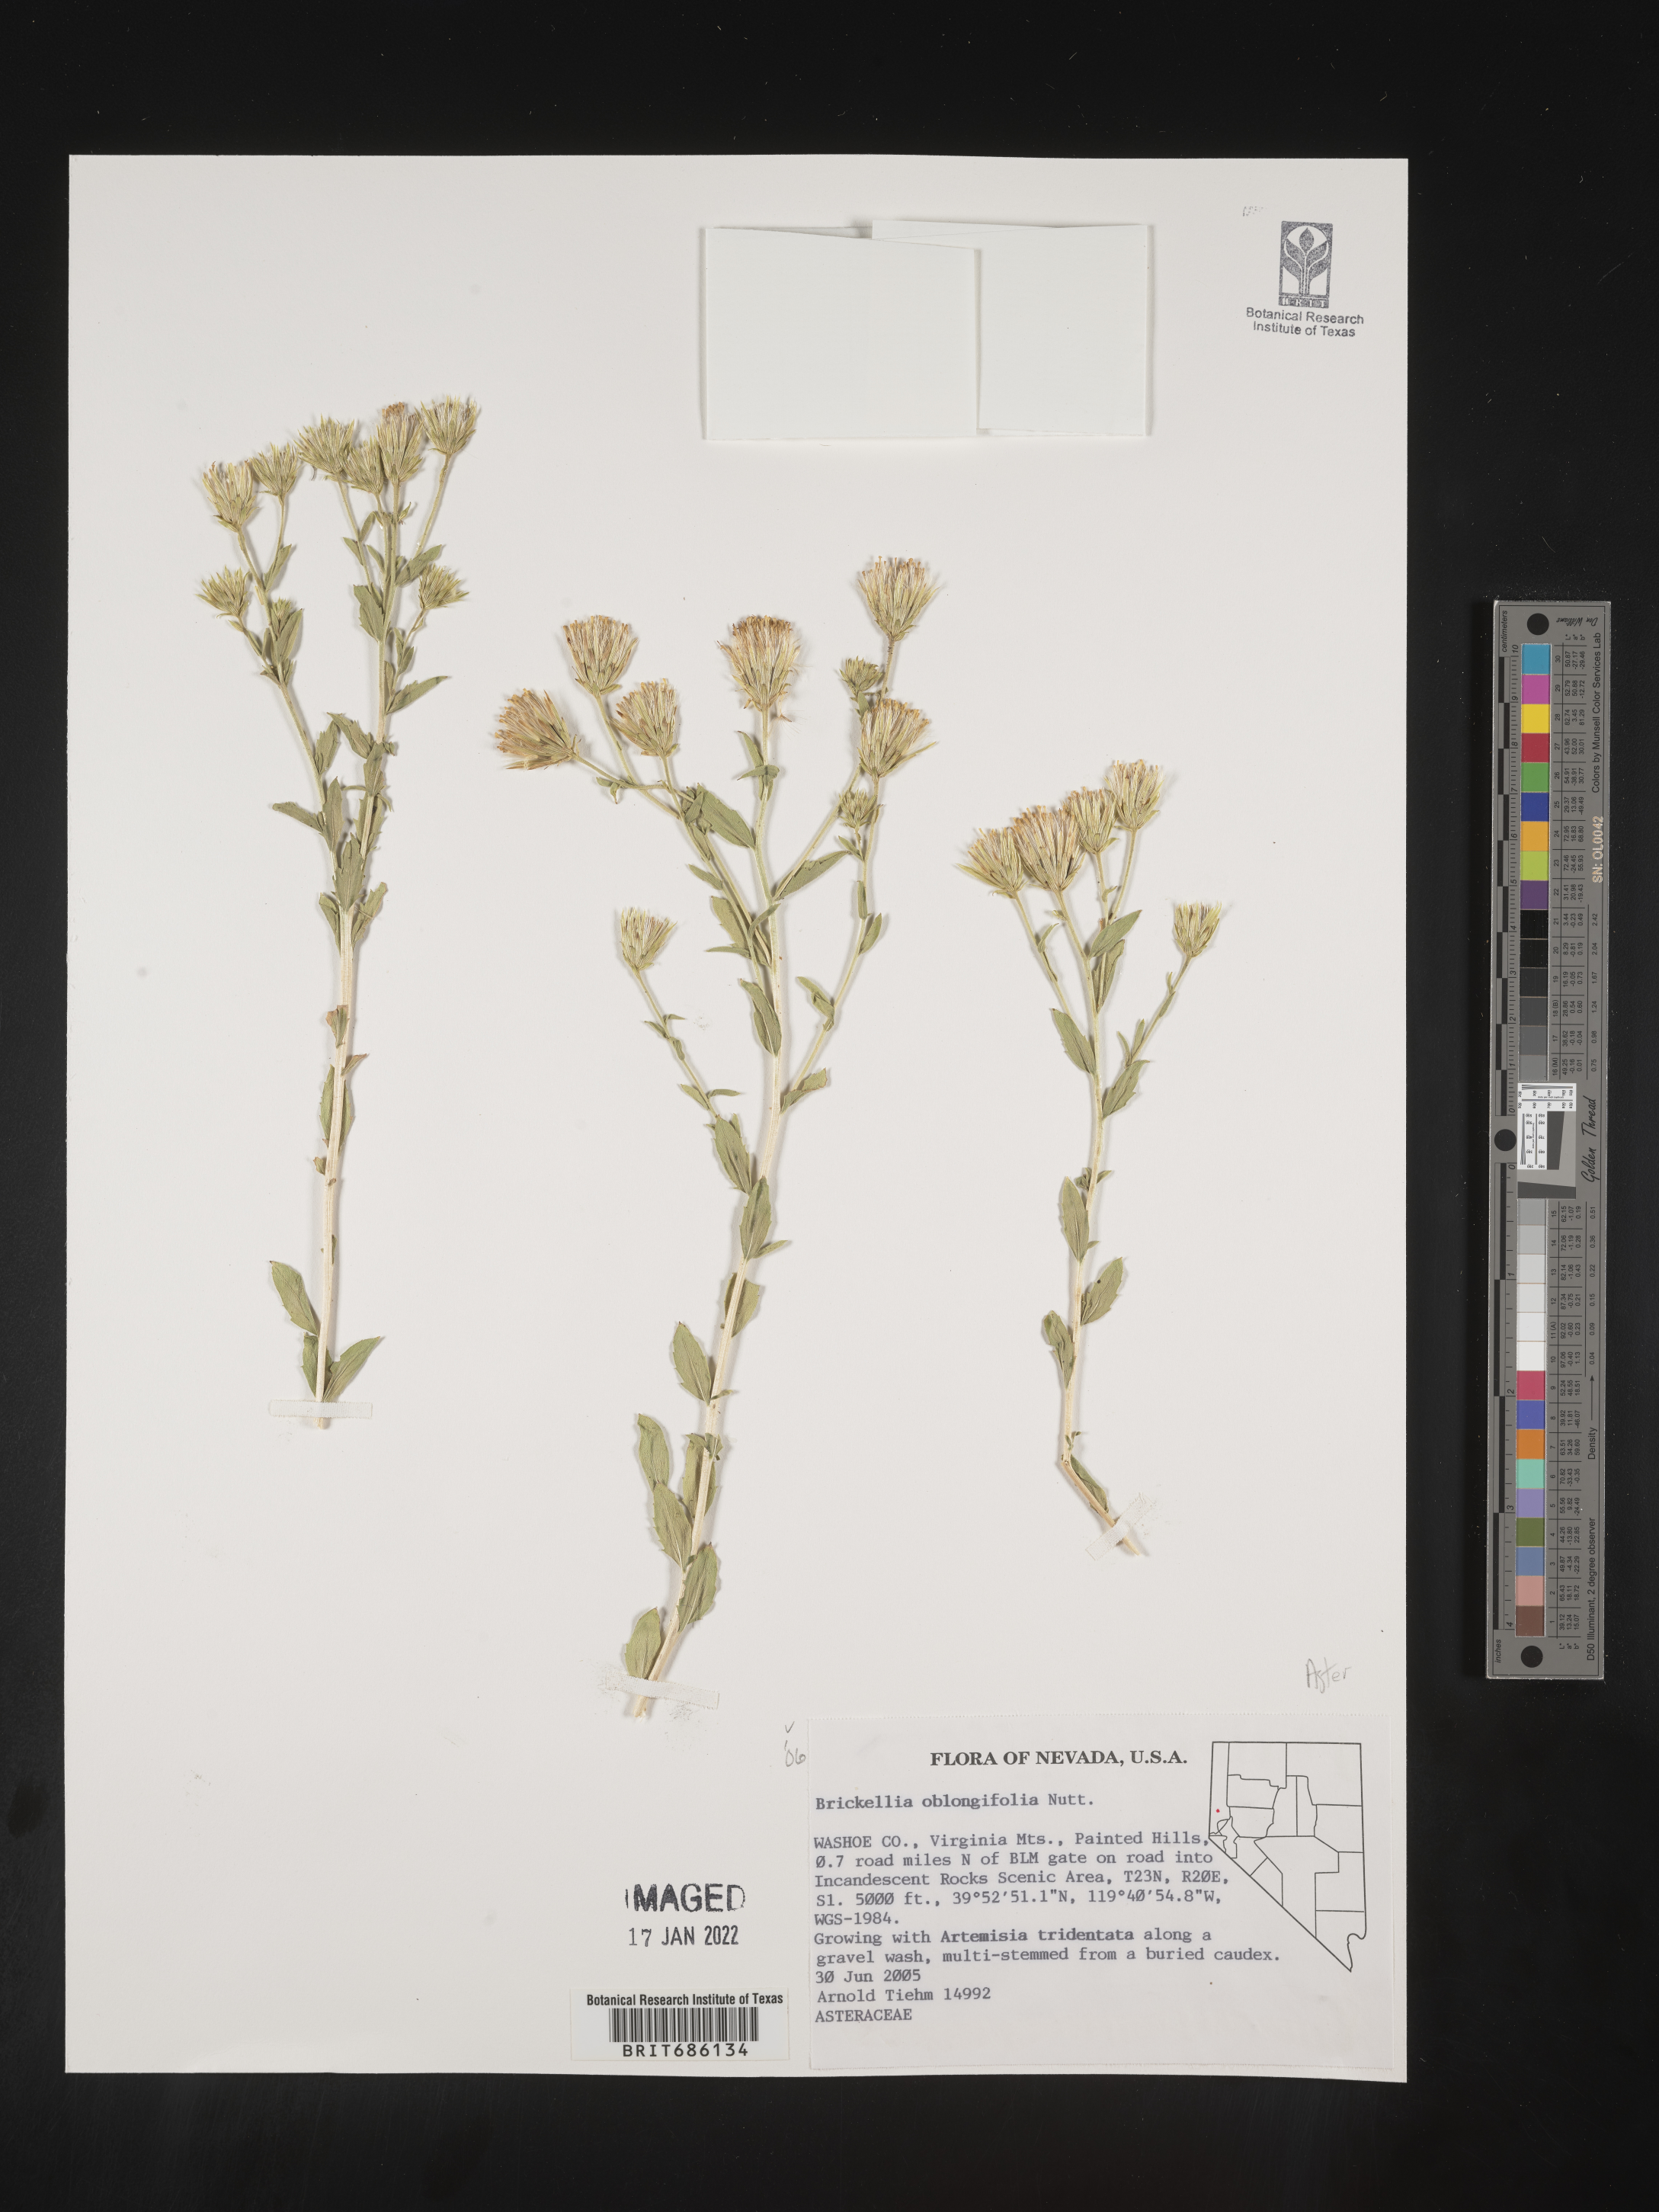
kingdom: Plantae
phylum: Tracheophyta
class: Magnoliopsida
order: Asterales
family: Asteraceae
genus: Brickellia
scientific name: Brickellia oblongifolia
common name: Mojave brickellbush
